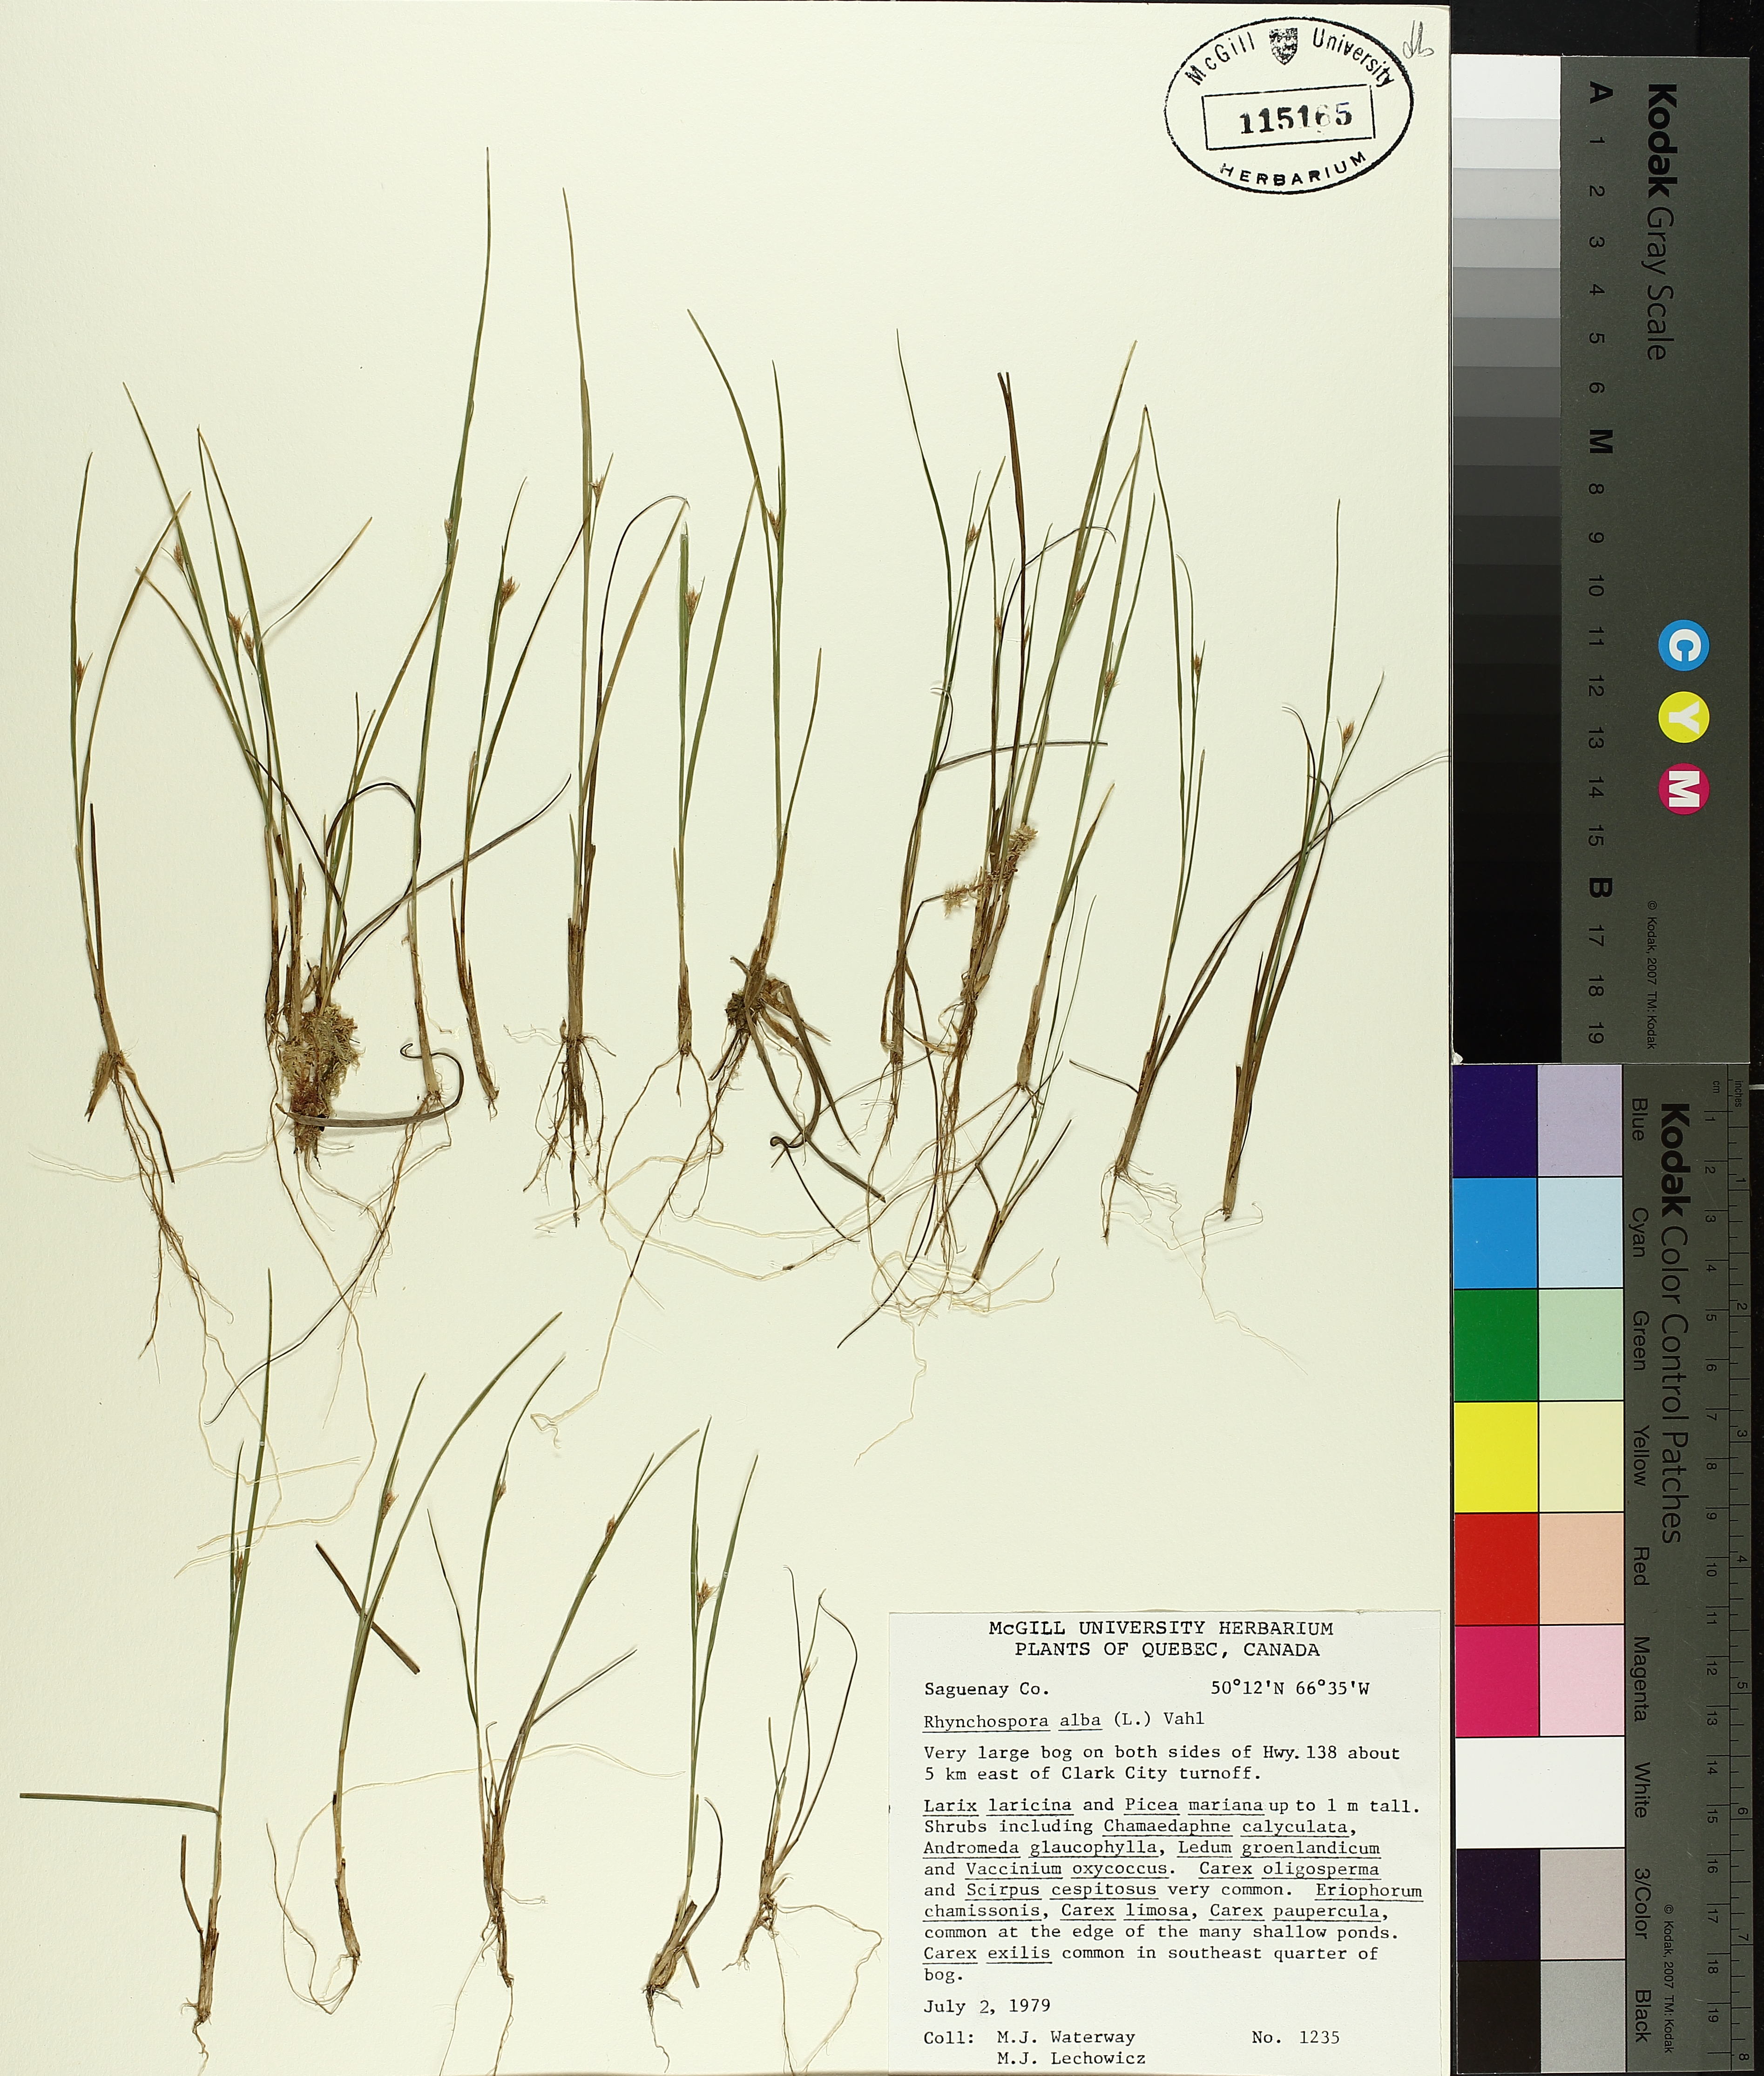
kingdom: Plantae
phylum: Tracheophyta
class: Liliopsida
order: Poales
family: Cyperaceae
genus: Rhynchospora
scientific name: Rhynchospora alba
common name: White beak-sedge
